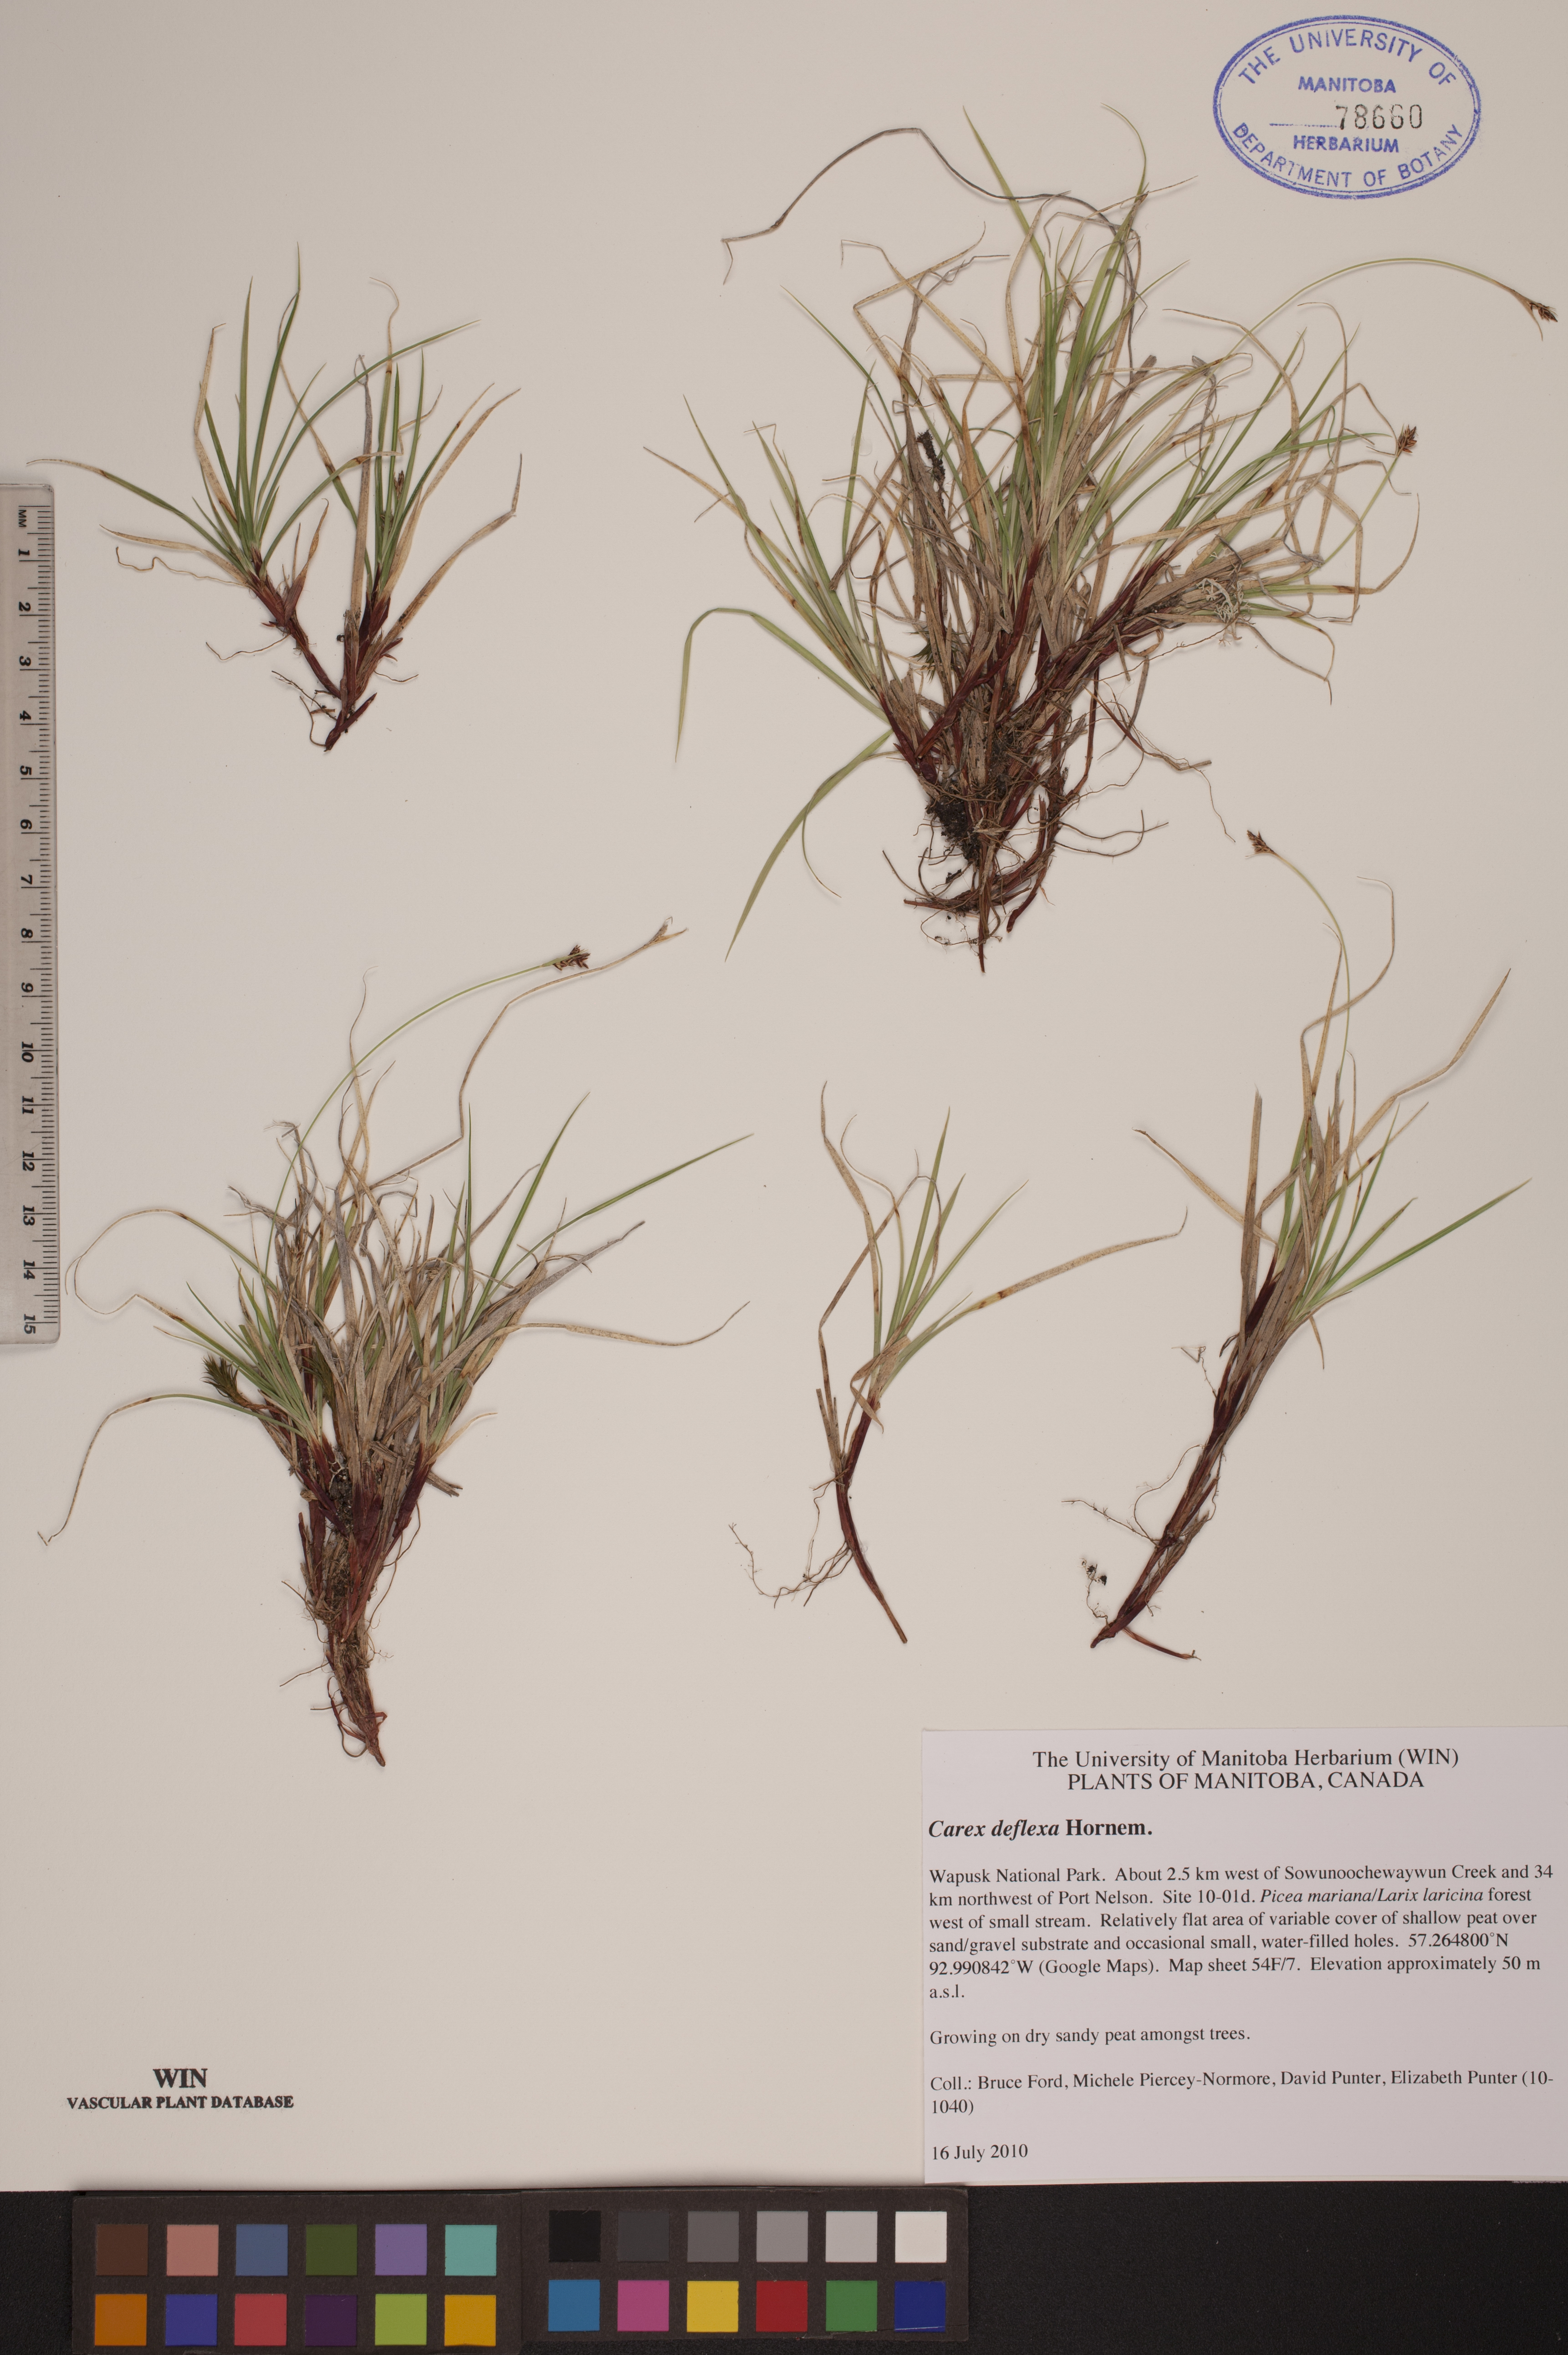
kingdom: Plantae
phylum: Tracheophyta
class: Liliopsida
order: Poales
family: Cyperaceae
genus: Carex
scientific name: Carex deflexa
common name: Bent northern sedge
